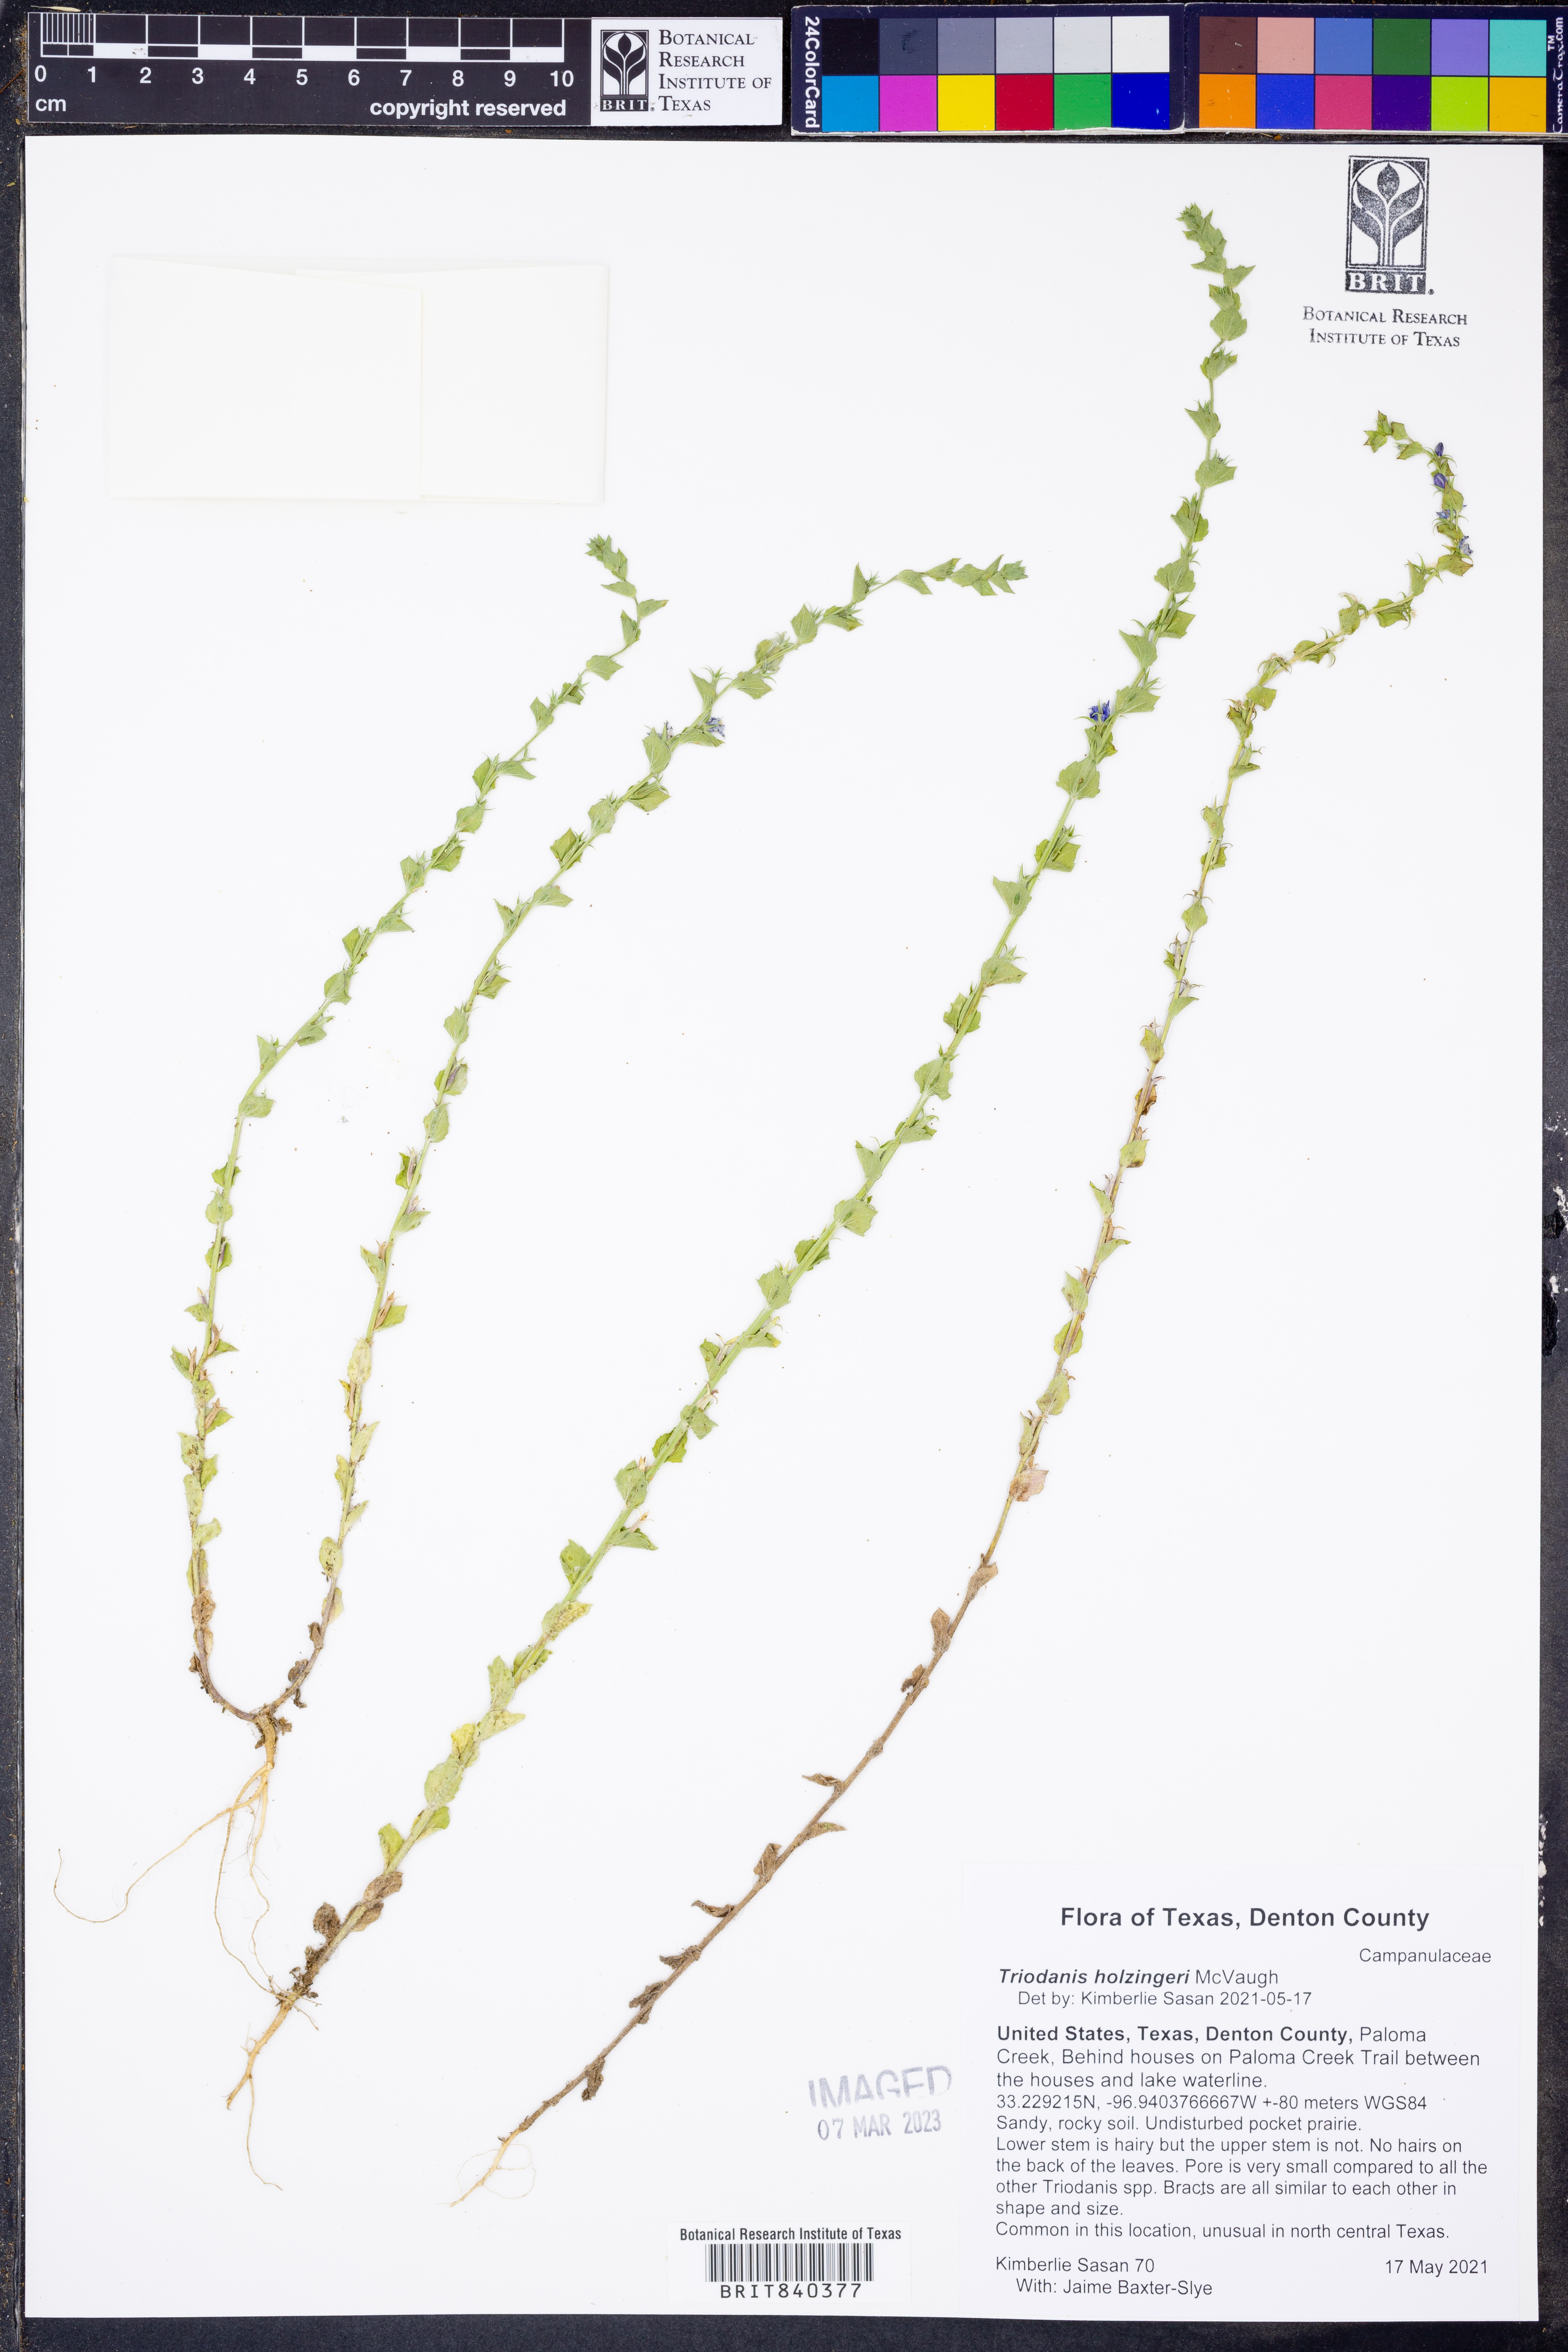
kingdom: Plantae
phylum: Tracheophyta
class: Magnoliopsida
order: Asterales
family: Campanulaceae
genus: Triodanis
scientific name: Triodanis holzingeri
